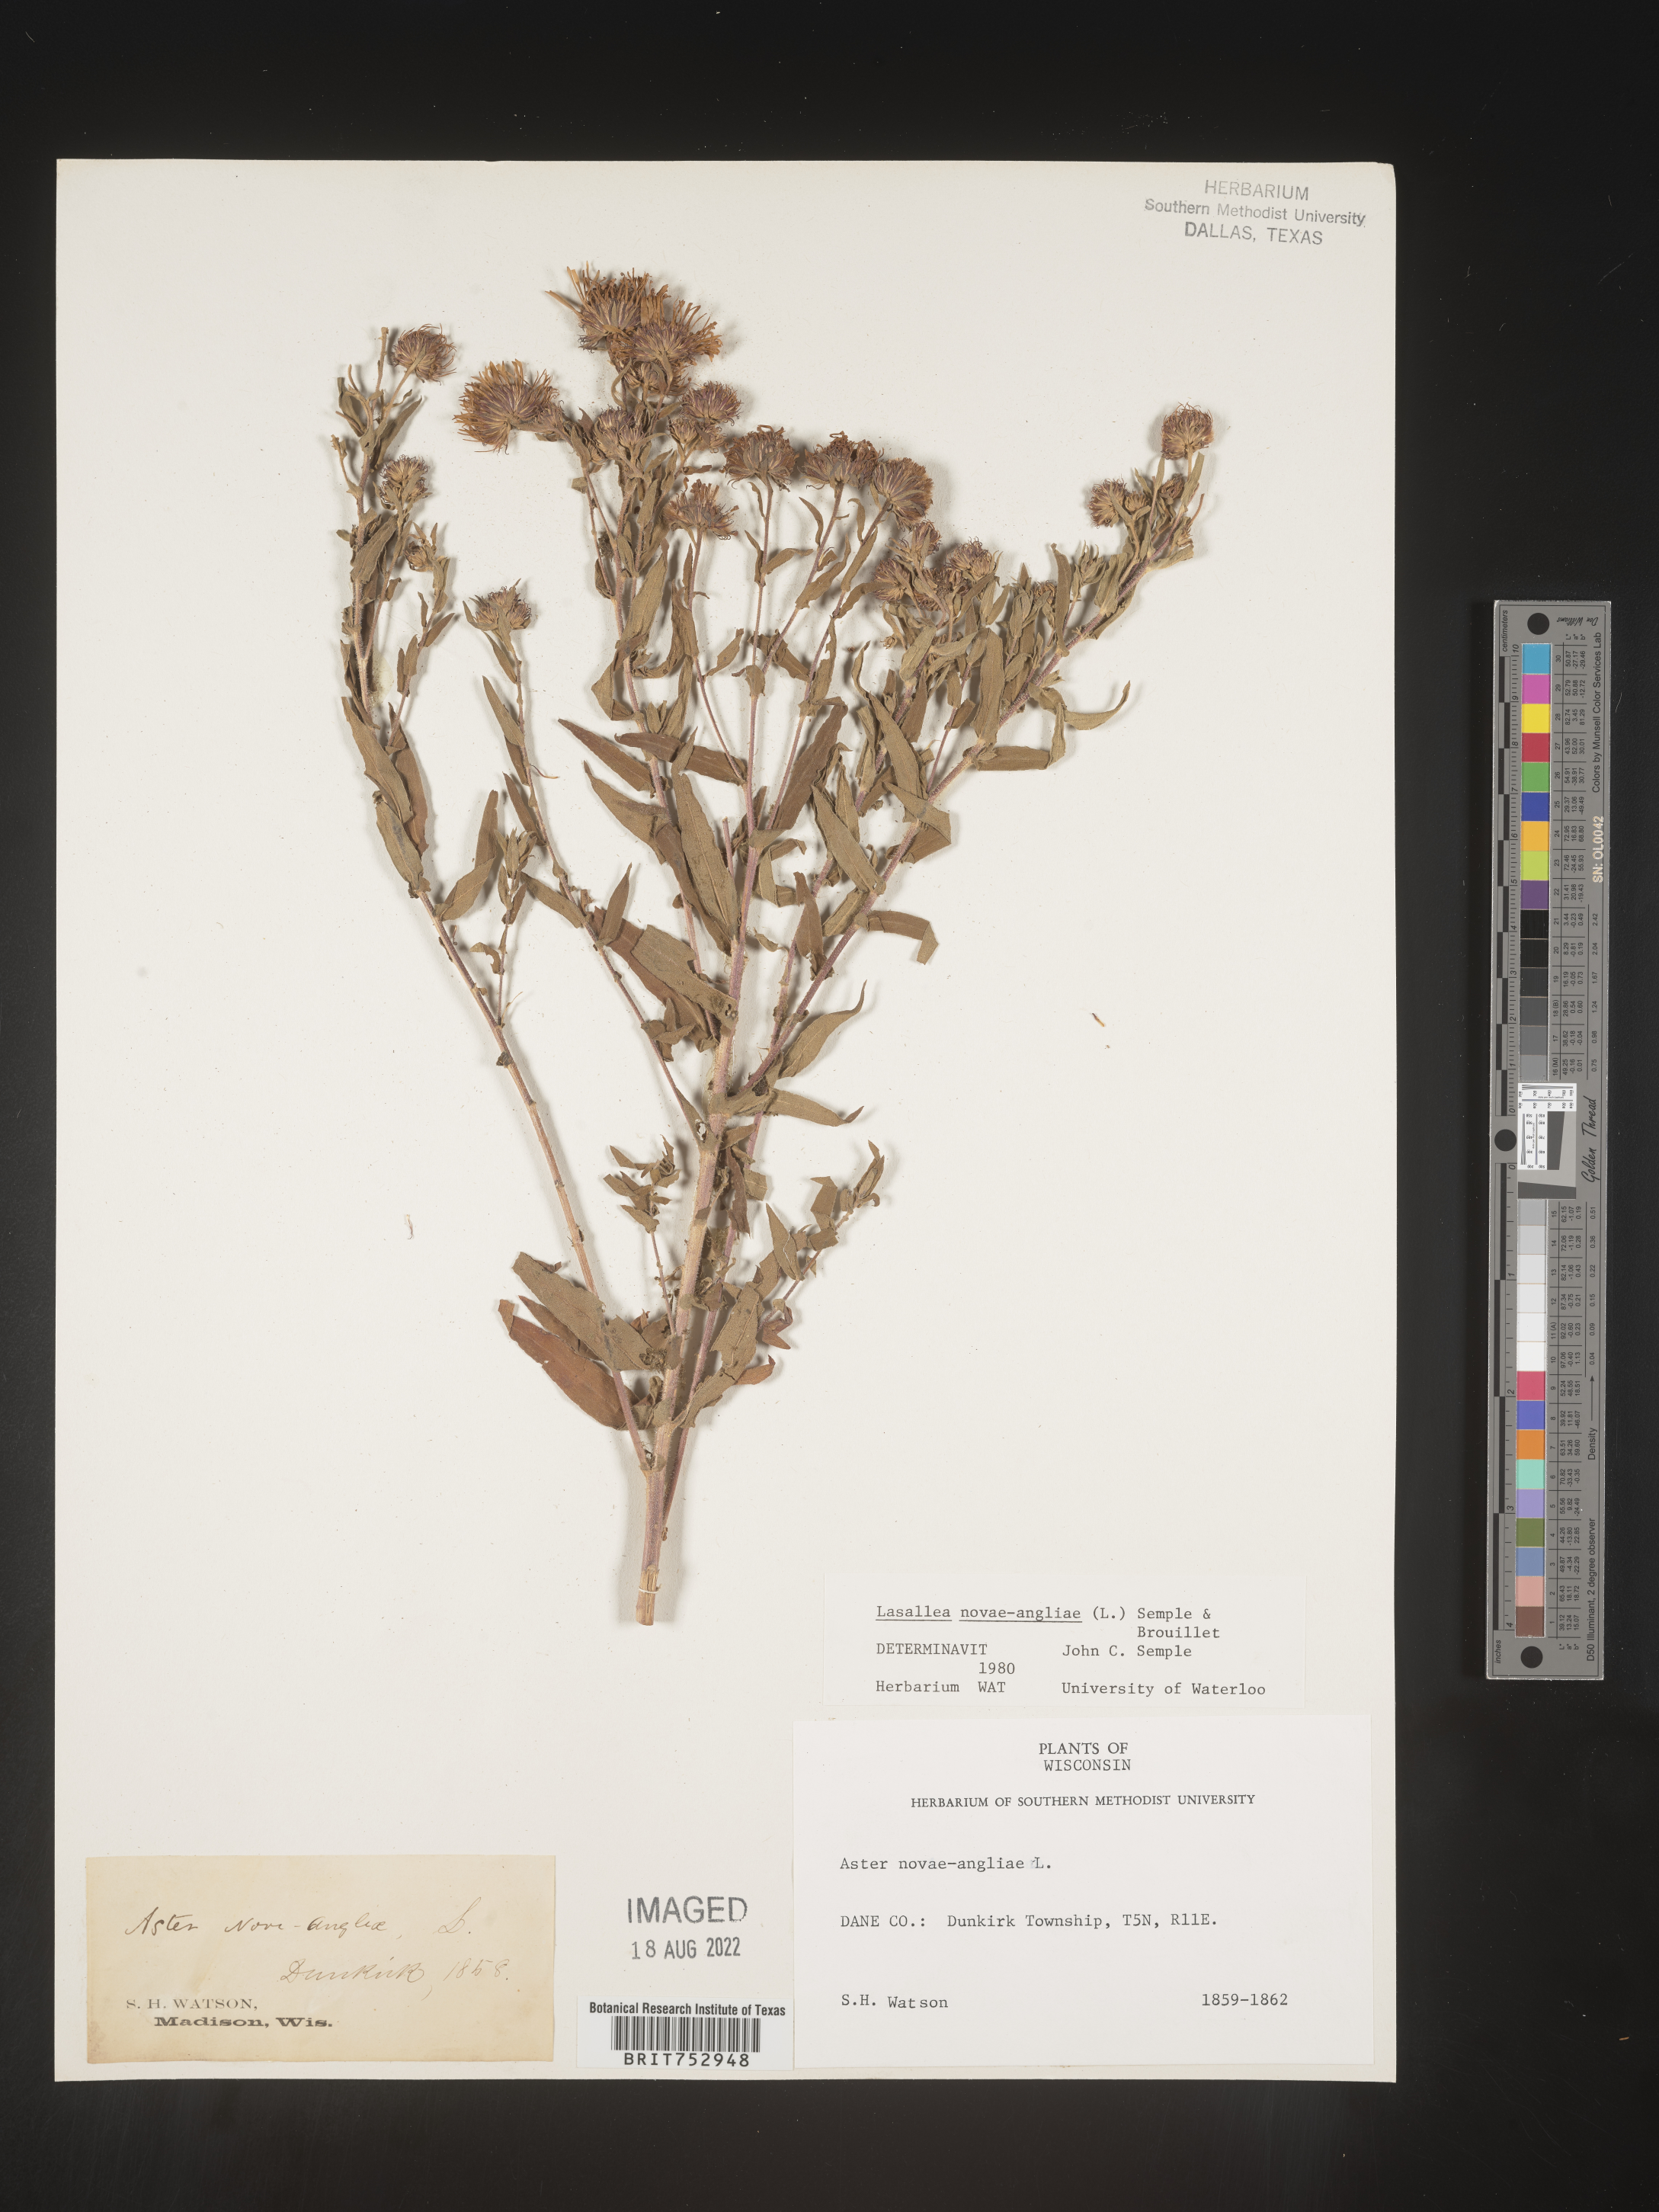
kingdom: Plantae
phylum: Tracheophyta
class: Magnoliopsida
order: Asterales
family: Asteraceae
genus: Symphyotrichum
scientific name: Symphyotrichum novae-angliae
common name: Michaelmas daisy
